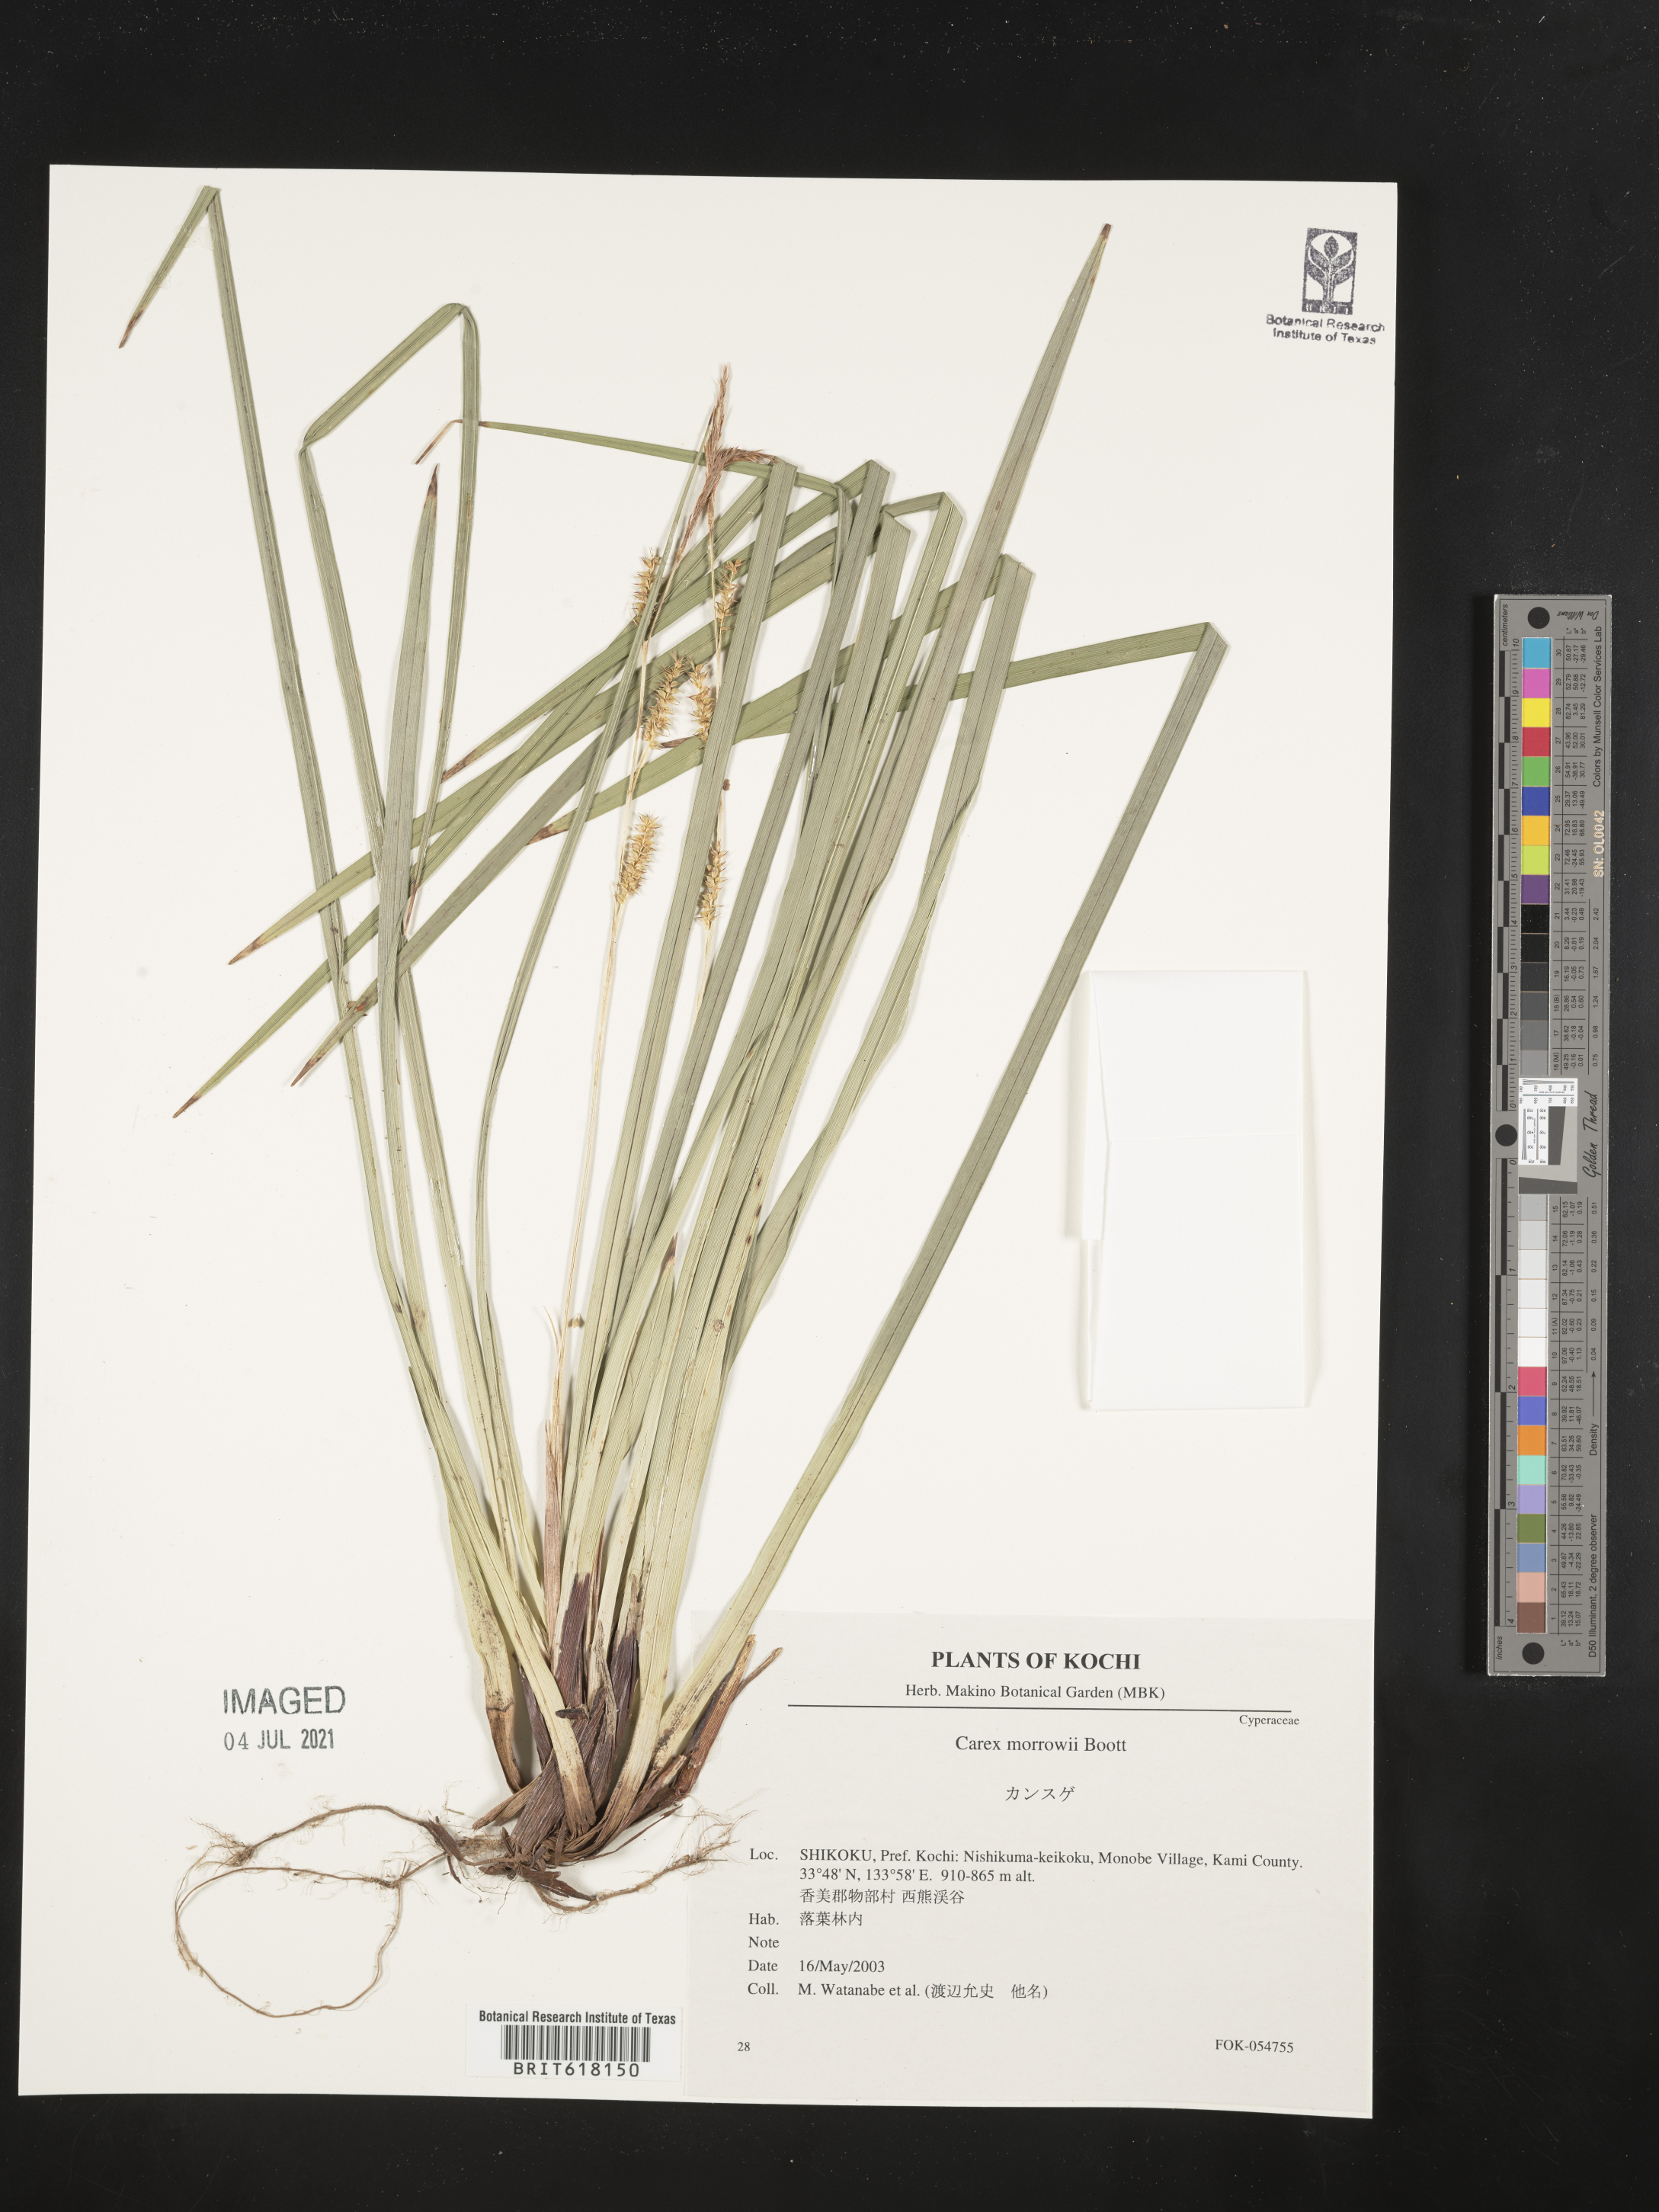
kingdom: Plantae
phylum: Tracheophyta
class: Liliopsida
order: Poales
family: Cyperaceae
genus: Carex
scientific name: Carex morrowii
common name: Japanese sedge
